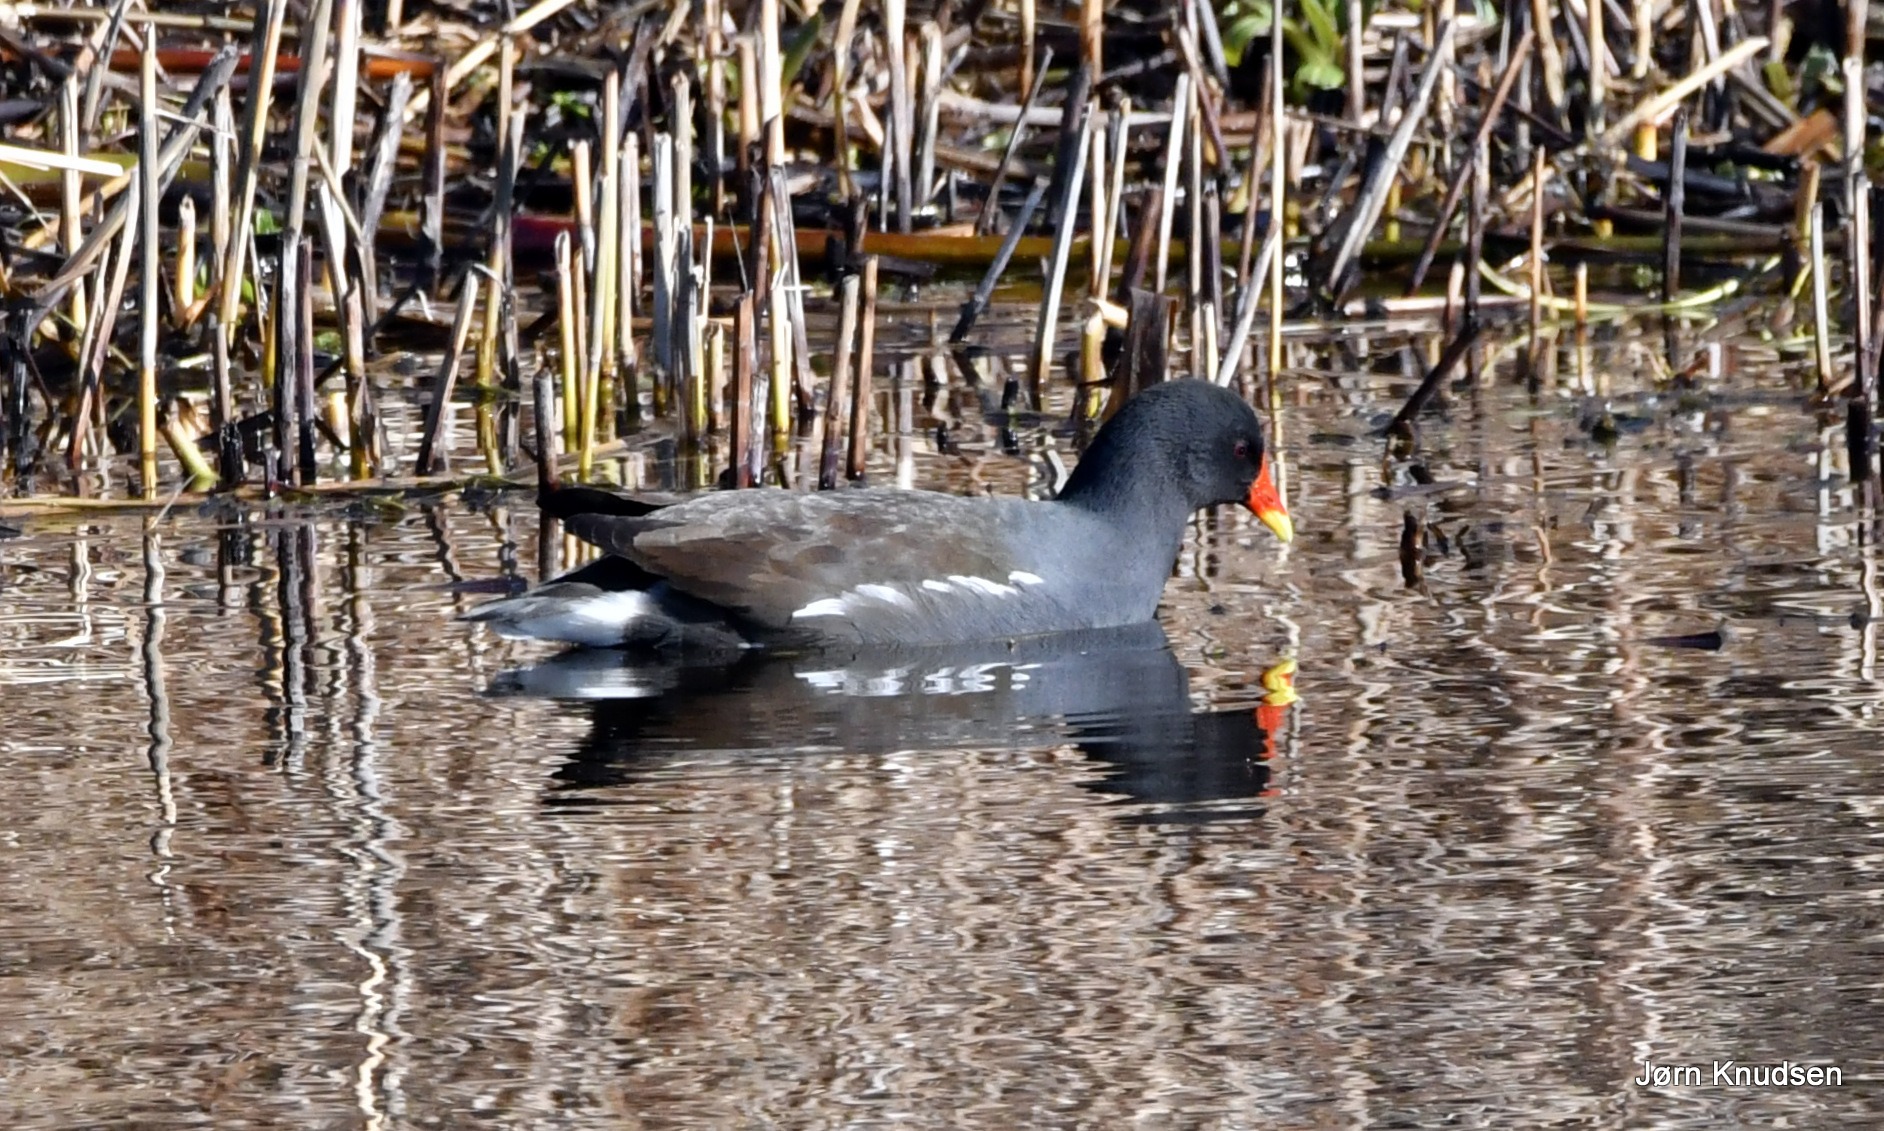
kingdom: Animalia
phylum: Chordata
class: Aves
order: Gruiformes
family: Rallidae
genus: Gallinula
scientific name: Gallinula chloropus
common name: Grønbenet rørhøne
